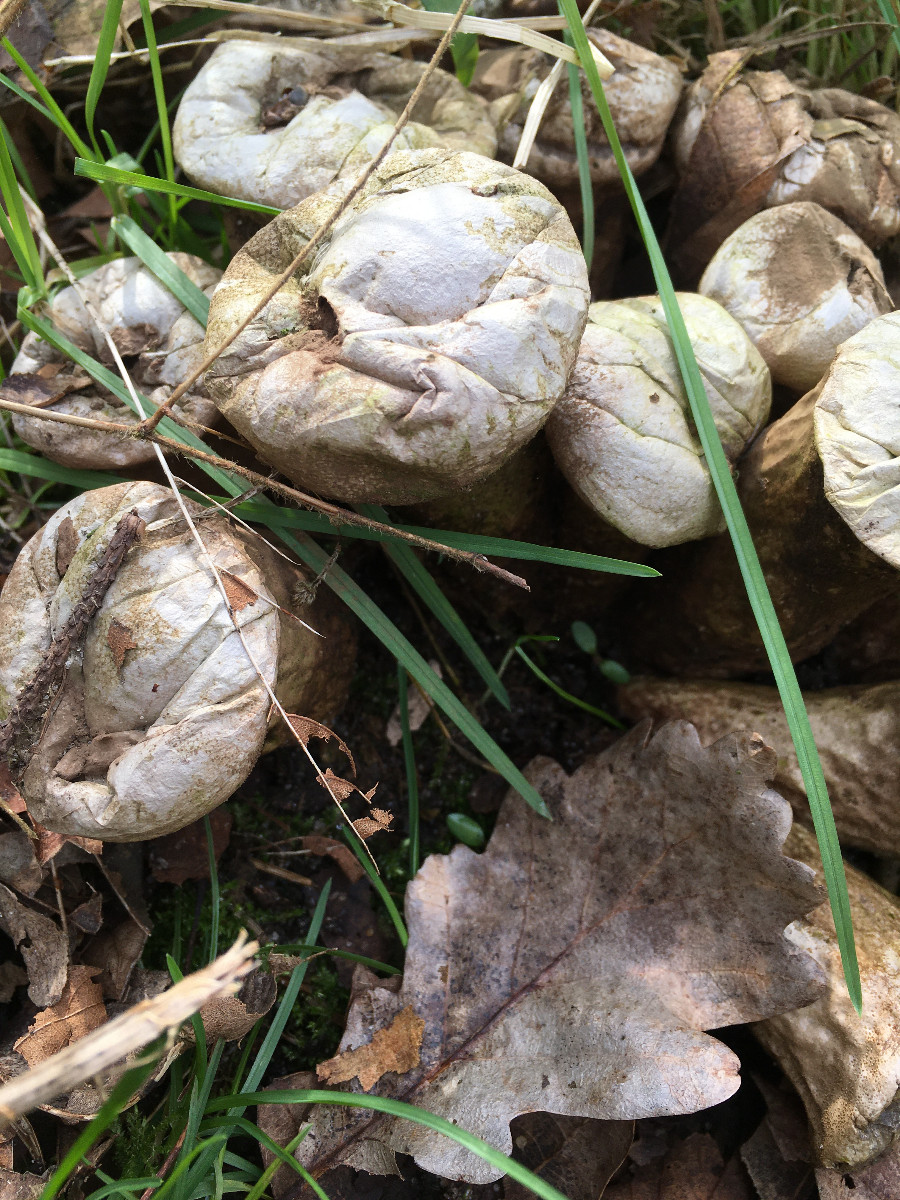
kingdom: Fungi
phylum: Basidiomycota
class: Agaricomycetes
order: Agaricales
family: Lycoperdaceae
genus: Lycoperdon
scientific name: Lycoperdon perlatum
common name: krystal-støvbold
